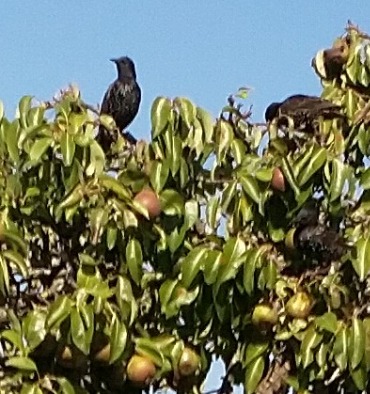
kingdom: Animalia
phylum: Chordata
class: Aves
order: Passeriformes
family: Sturnidae
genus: Sturnus
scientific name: Sturnus vulgaris
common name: Stær
